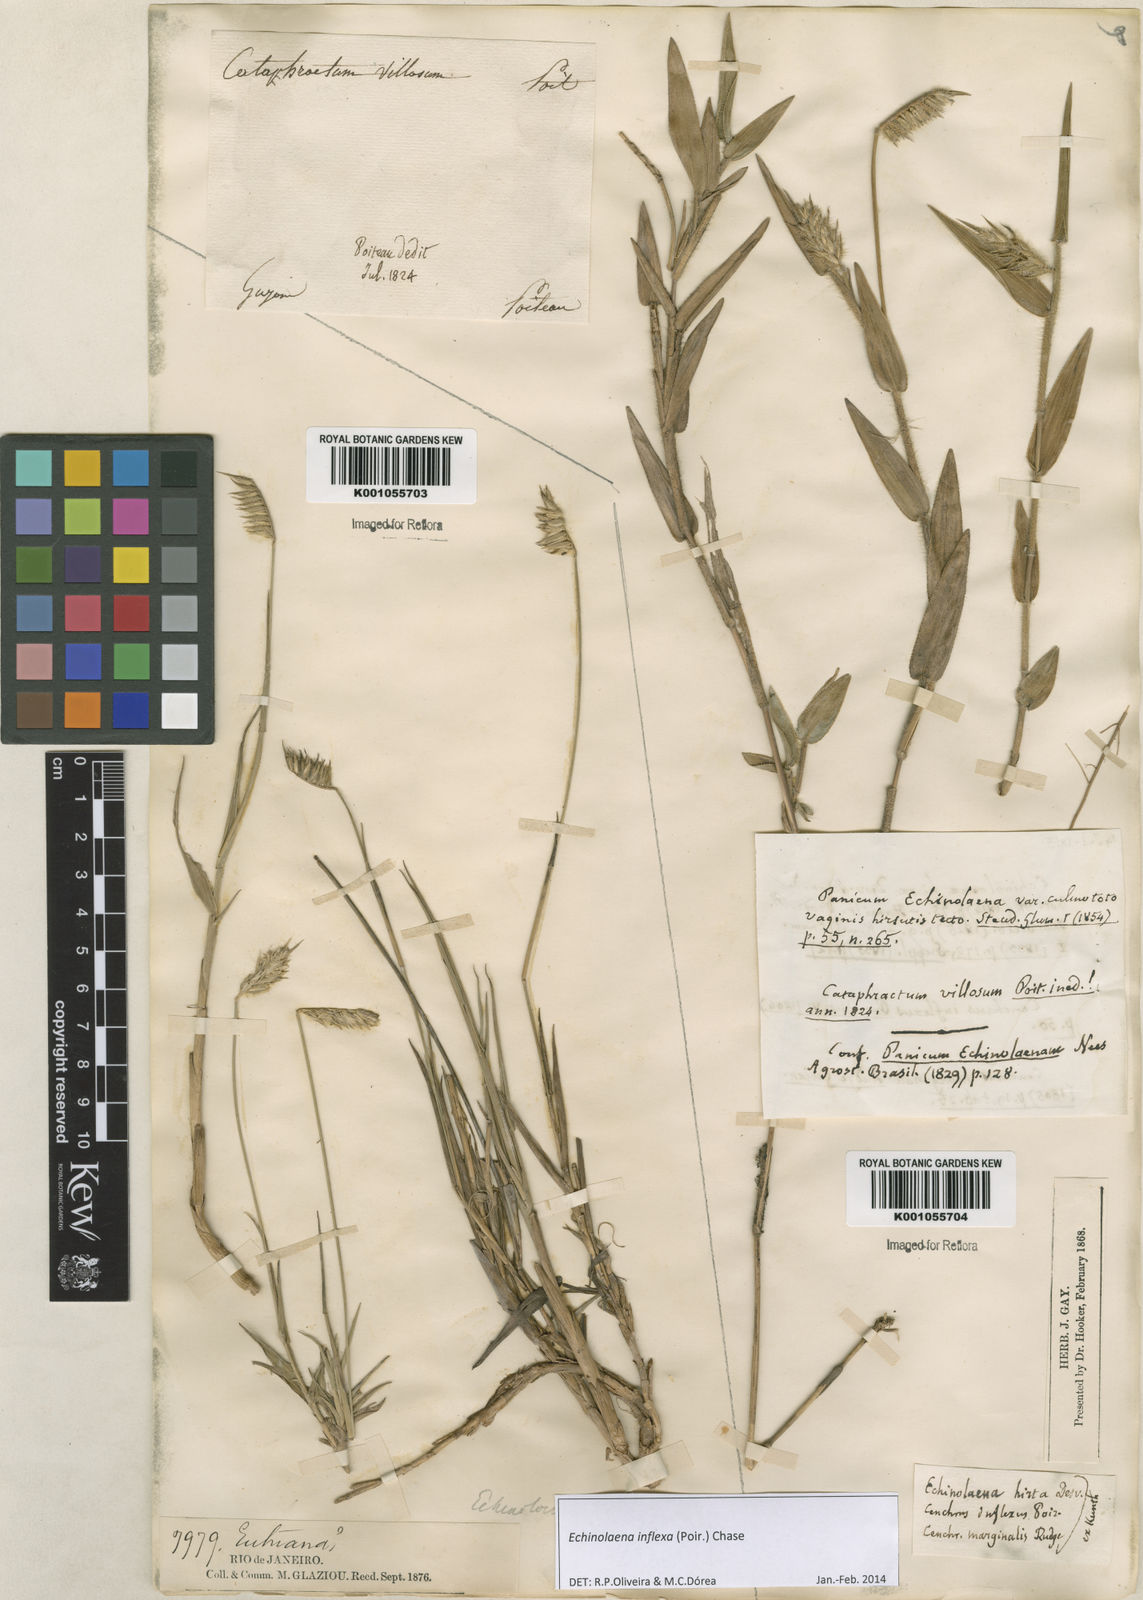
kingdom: Plantae
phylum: Tracheophyta
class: Liliopsida
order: Poales
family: Poaceae
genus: Echinolaena
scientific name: Echinolaena inflexa
